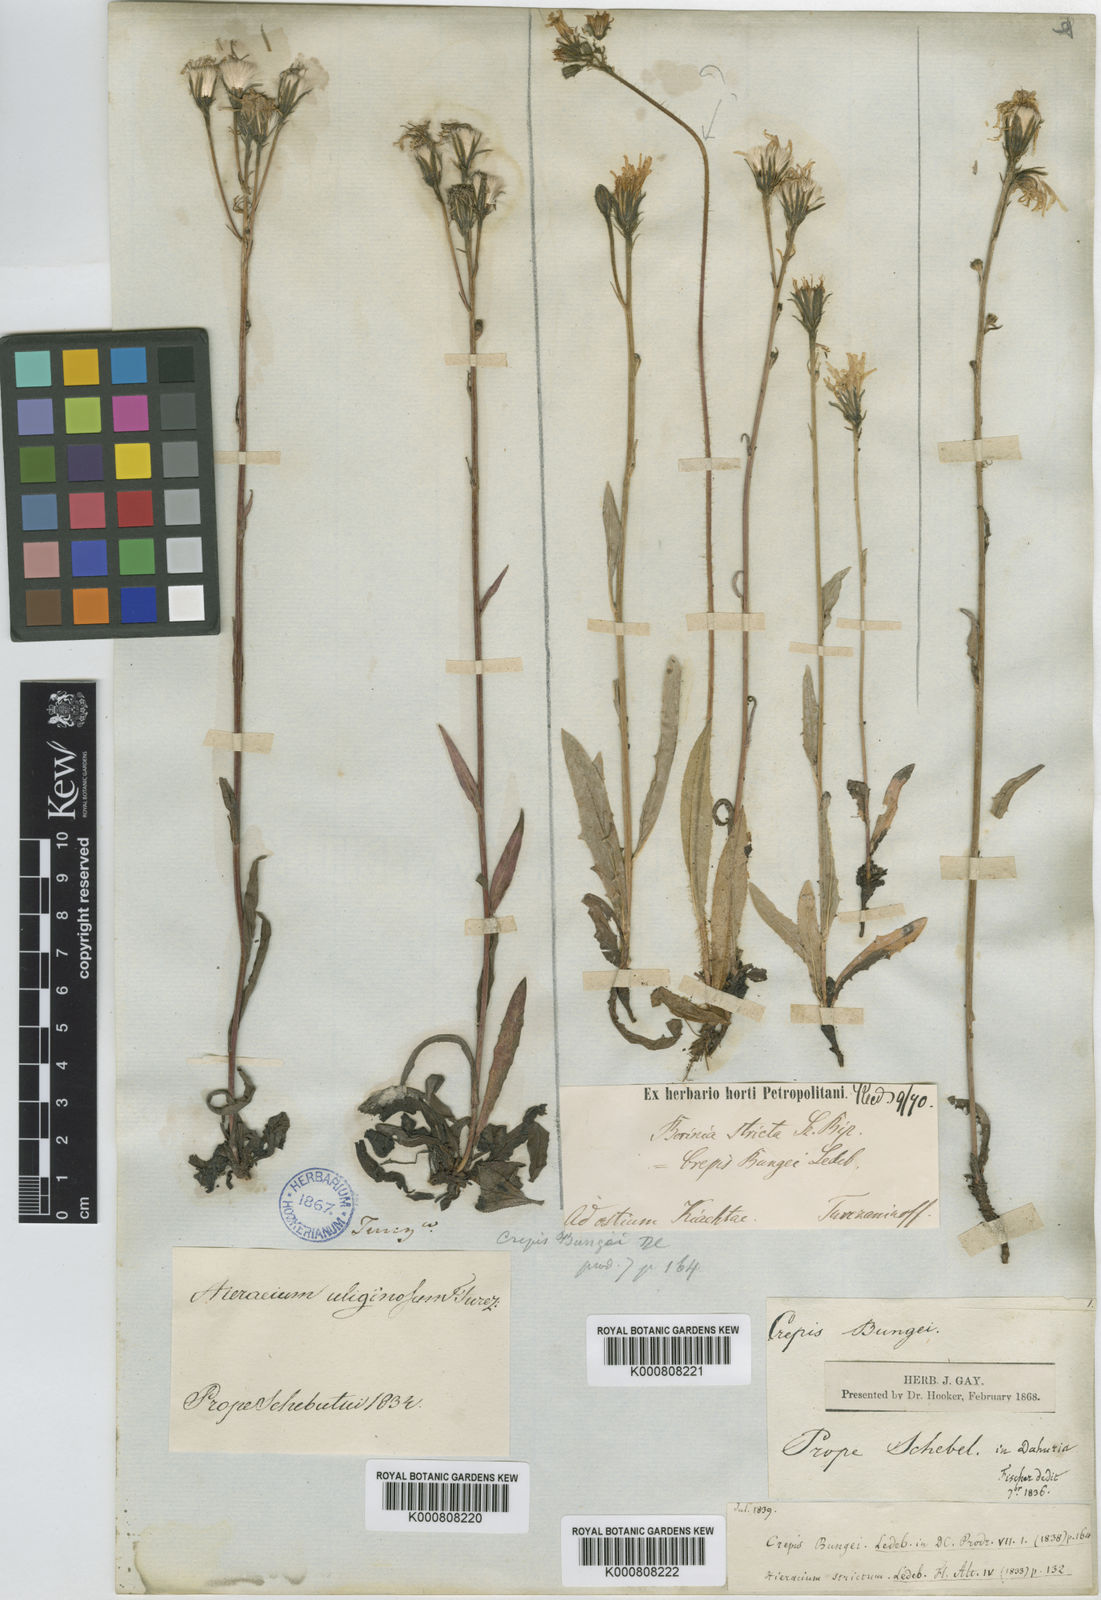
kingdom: Plantae
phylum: Tracheophyta
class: Magnoliopsida
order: Asterales
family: Asteraceae
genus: Crepis
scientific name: Crepis bungei
